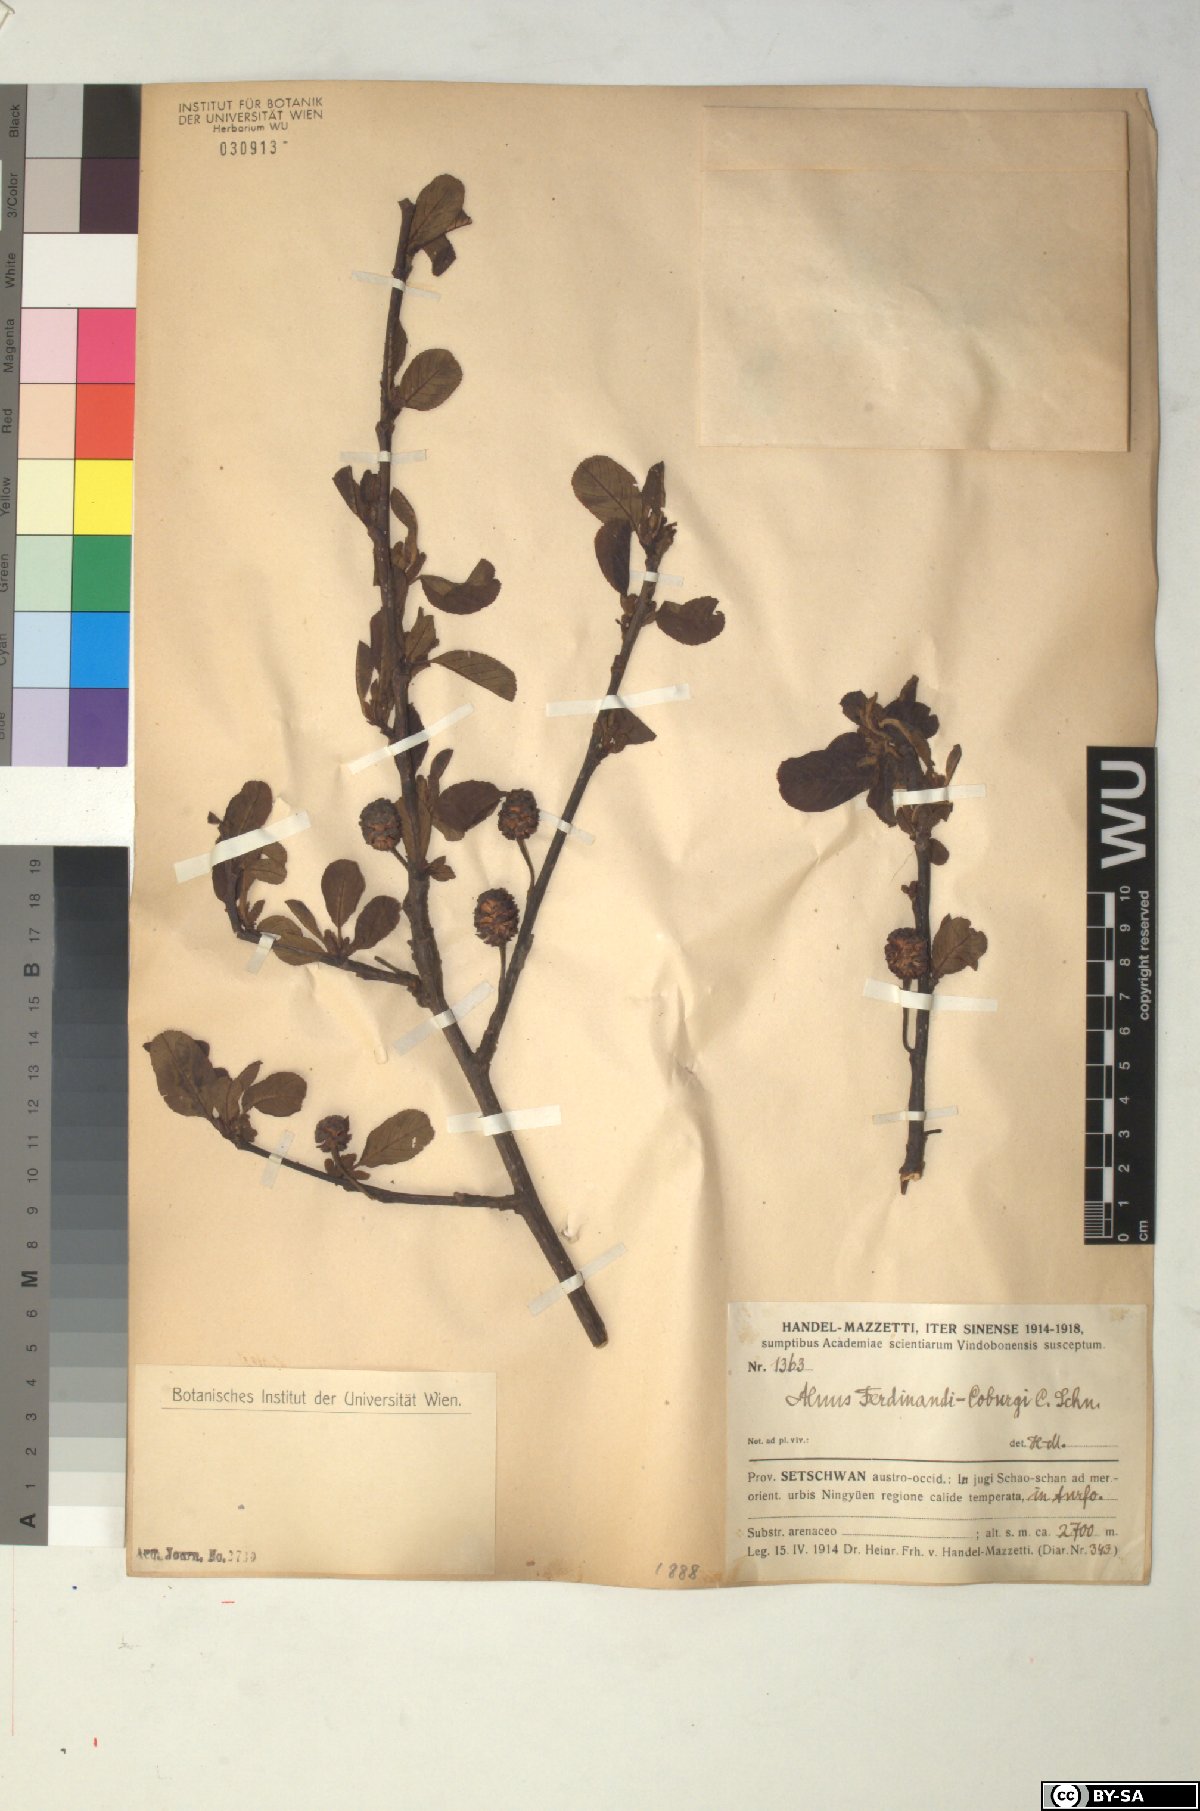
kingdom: Plantae
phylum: Tracheophyta
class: Magnoliopsida
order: Fagales
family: Betulaceae
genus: Alnus
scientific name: Alnus ferdinandi-coburgii
